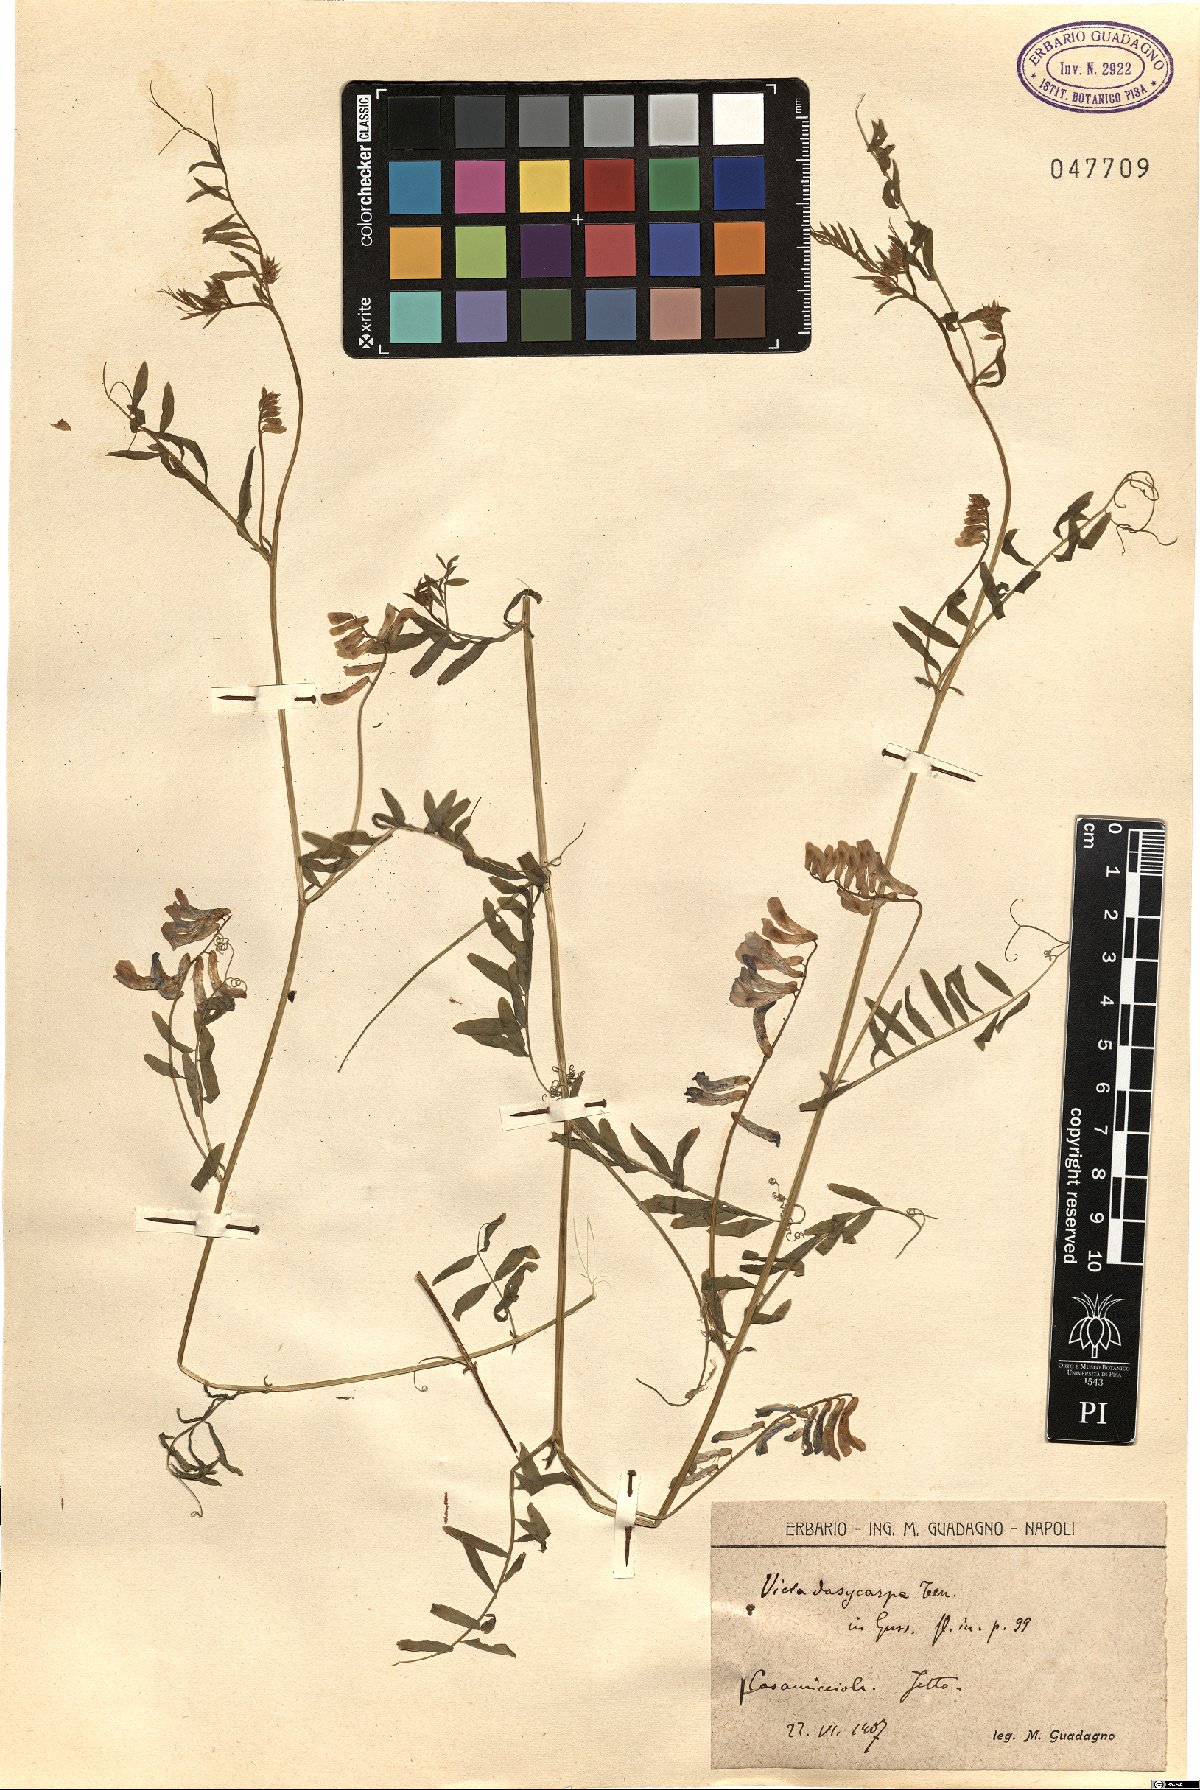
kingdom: Plantae
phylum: Tracheophyta
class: Magnoliopsida
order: Fabales
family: Fabaceae
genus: Vicia
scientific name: Vicia villosa
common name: Fodder vetch
